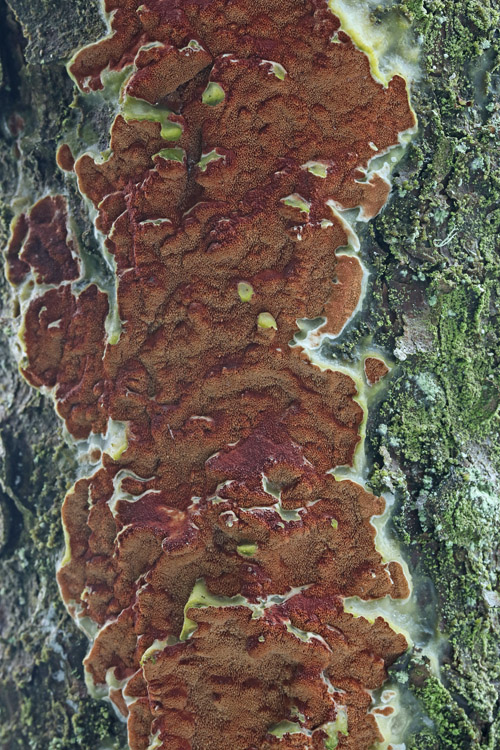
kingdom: Fungi
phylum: Basidiomycota
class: Agaricomycetes
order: Polyporales
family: Irpicaceae
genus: Meruliopsis
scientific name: Meruliopsis taxicola
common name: purpurbrun foldporesvamp
